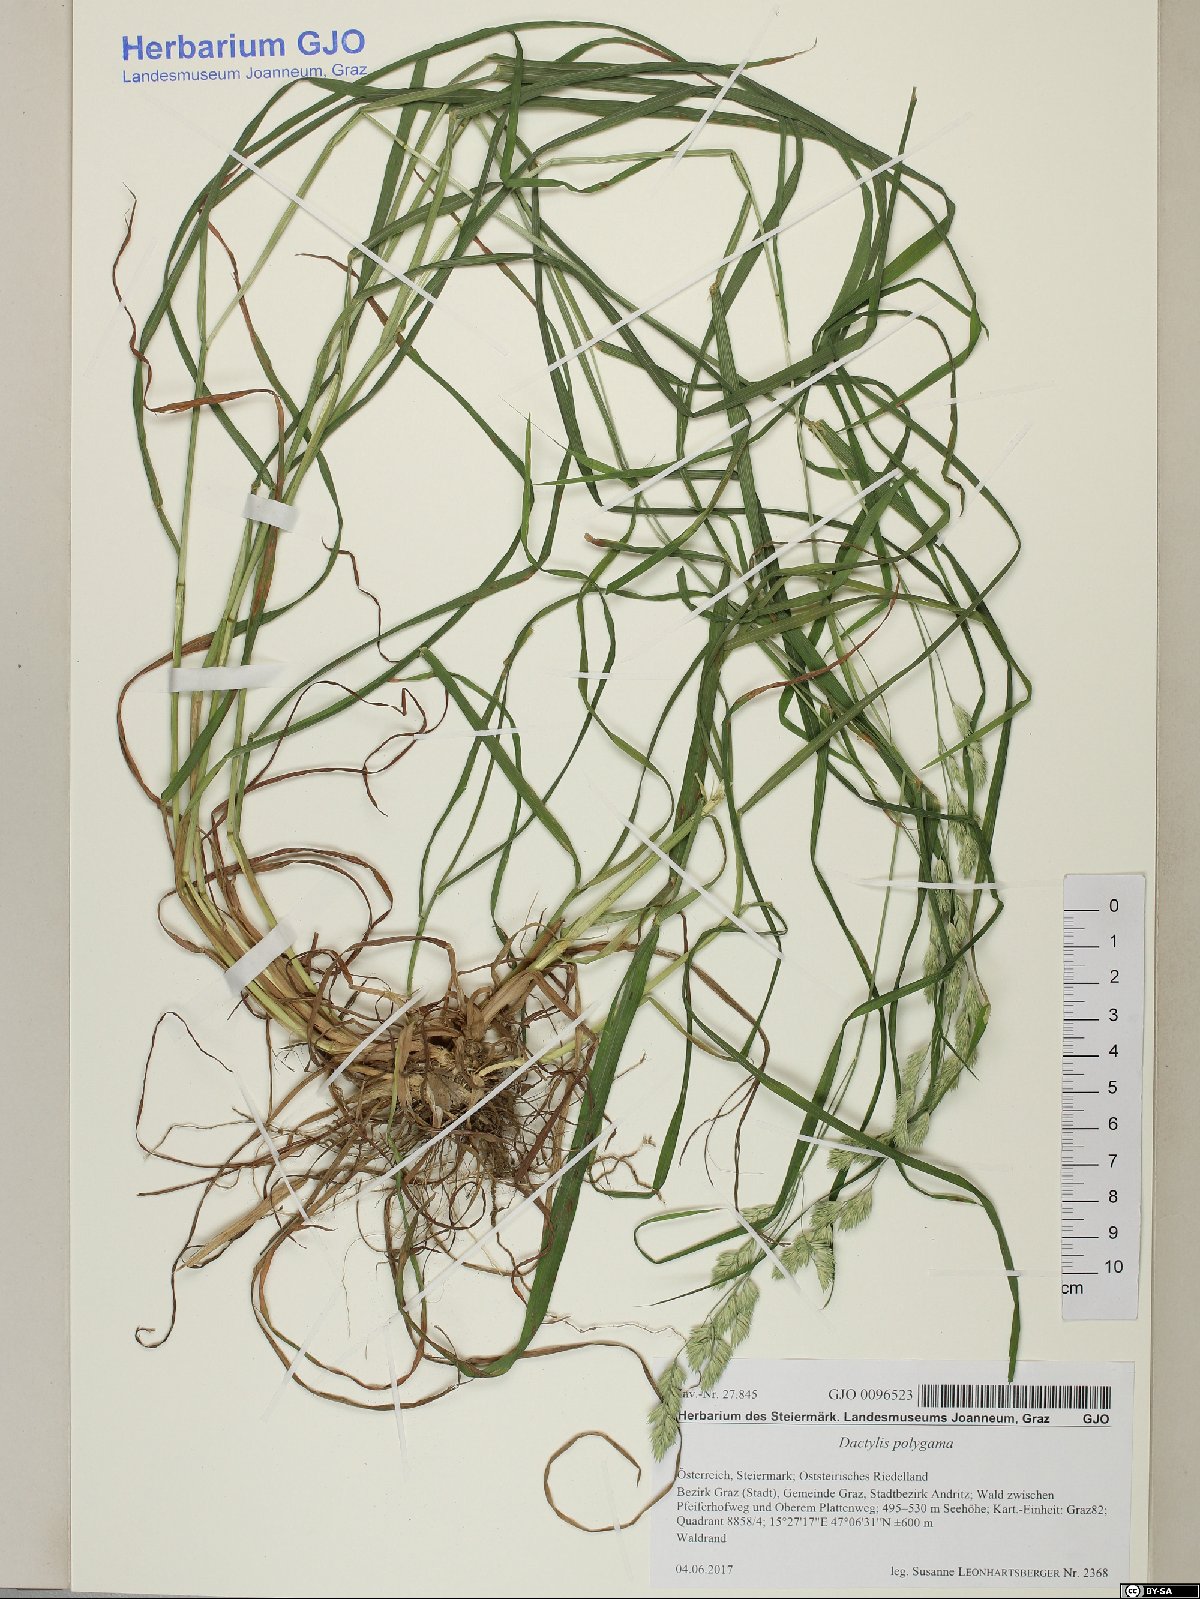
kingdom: Plantae
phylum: Tracheophyta
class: Liliopsida
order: Poales
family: Poaceae
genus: Dactylis
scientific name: Dactylis glomerata
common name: Orchardgrass
